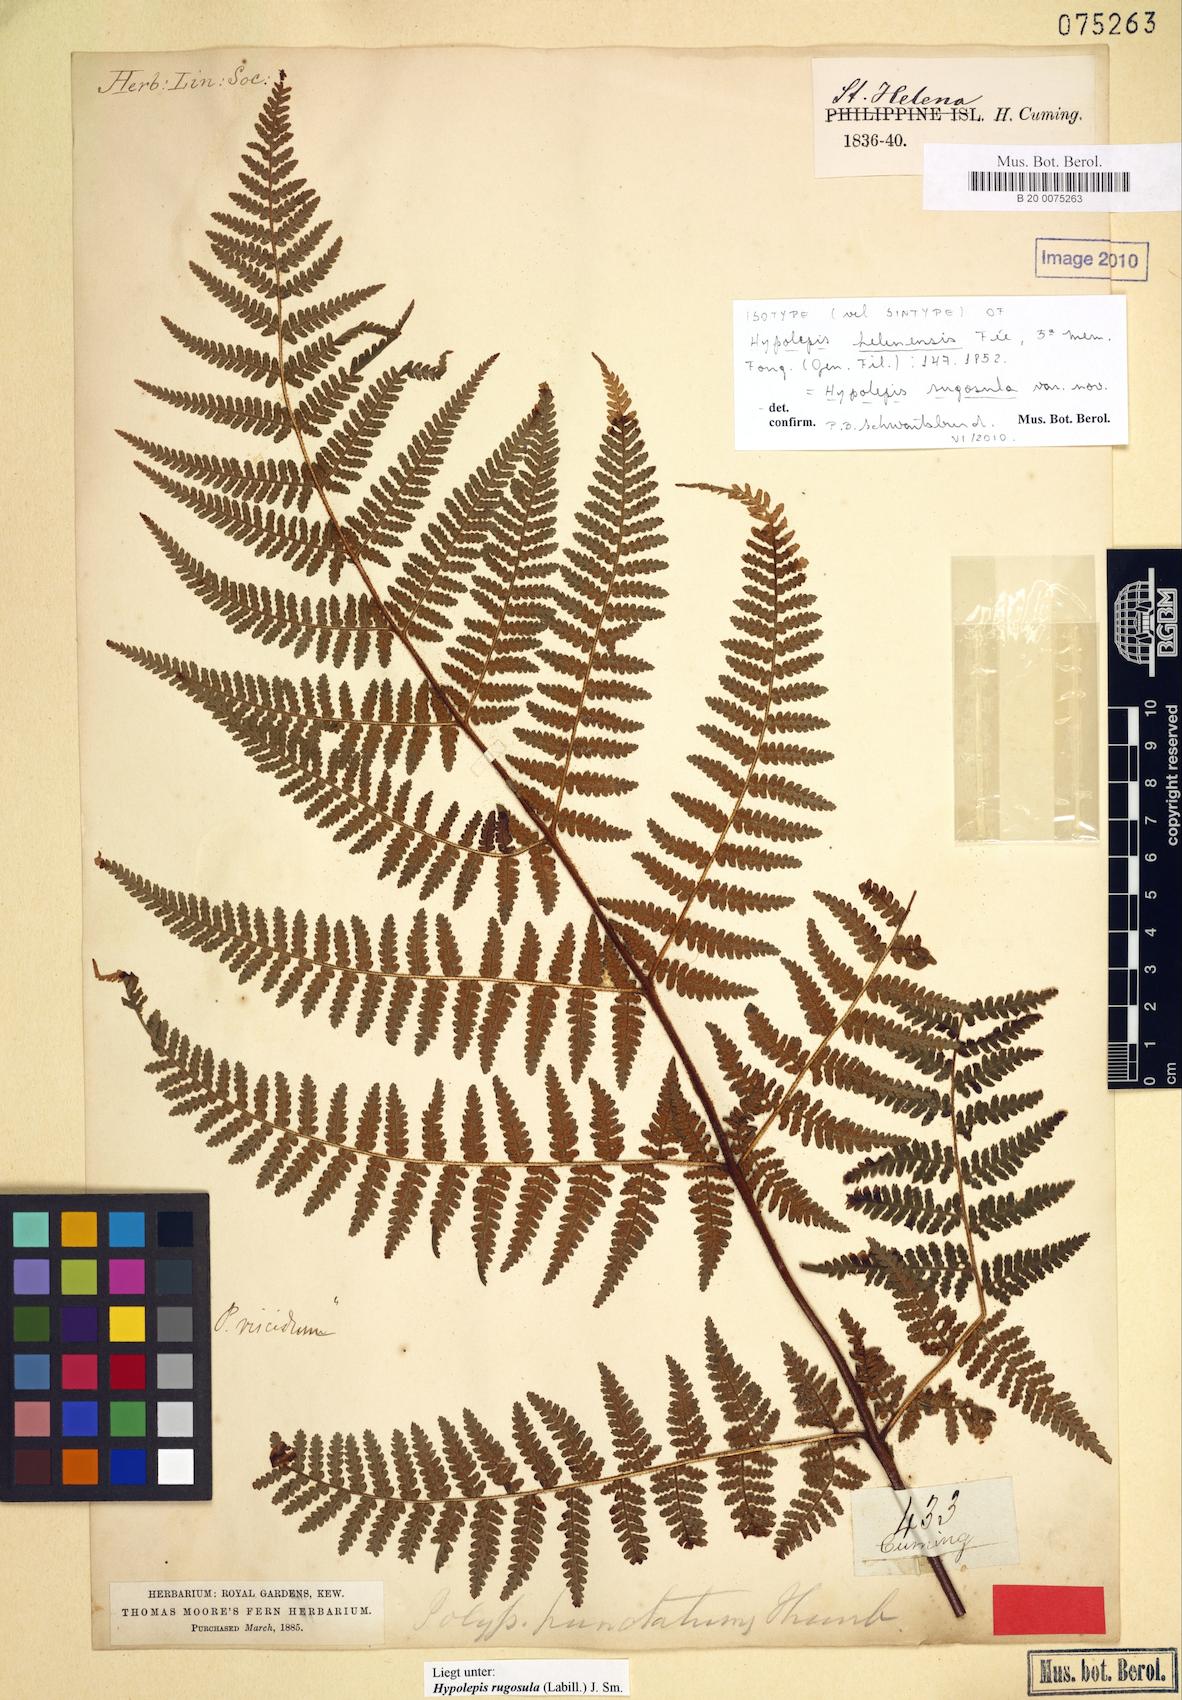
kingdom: Plantae
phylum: Tracheophyta
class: Polypodiopsida
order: Polypodiales
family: Dennstaedtiaceae
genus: Hypolepis
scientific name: Hypolepis rugosula
